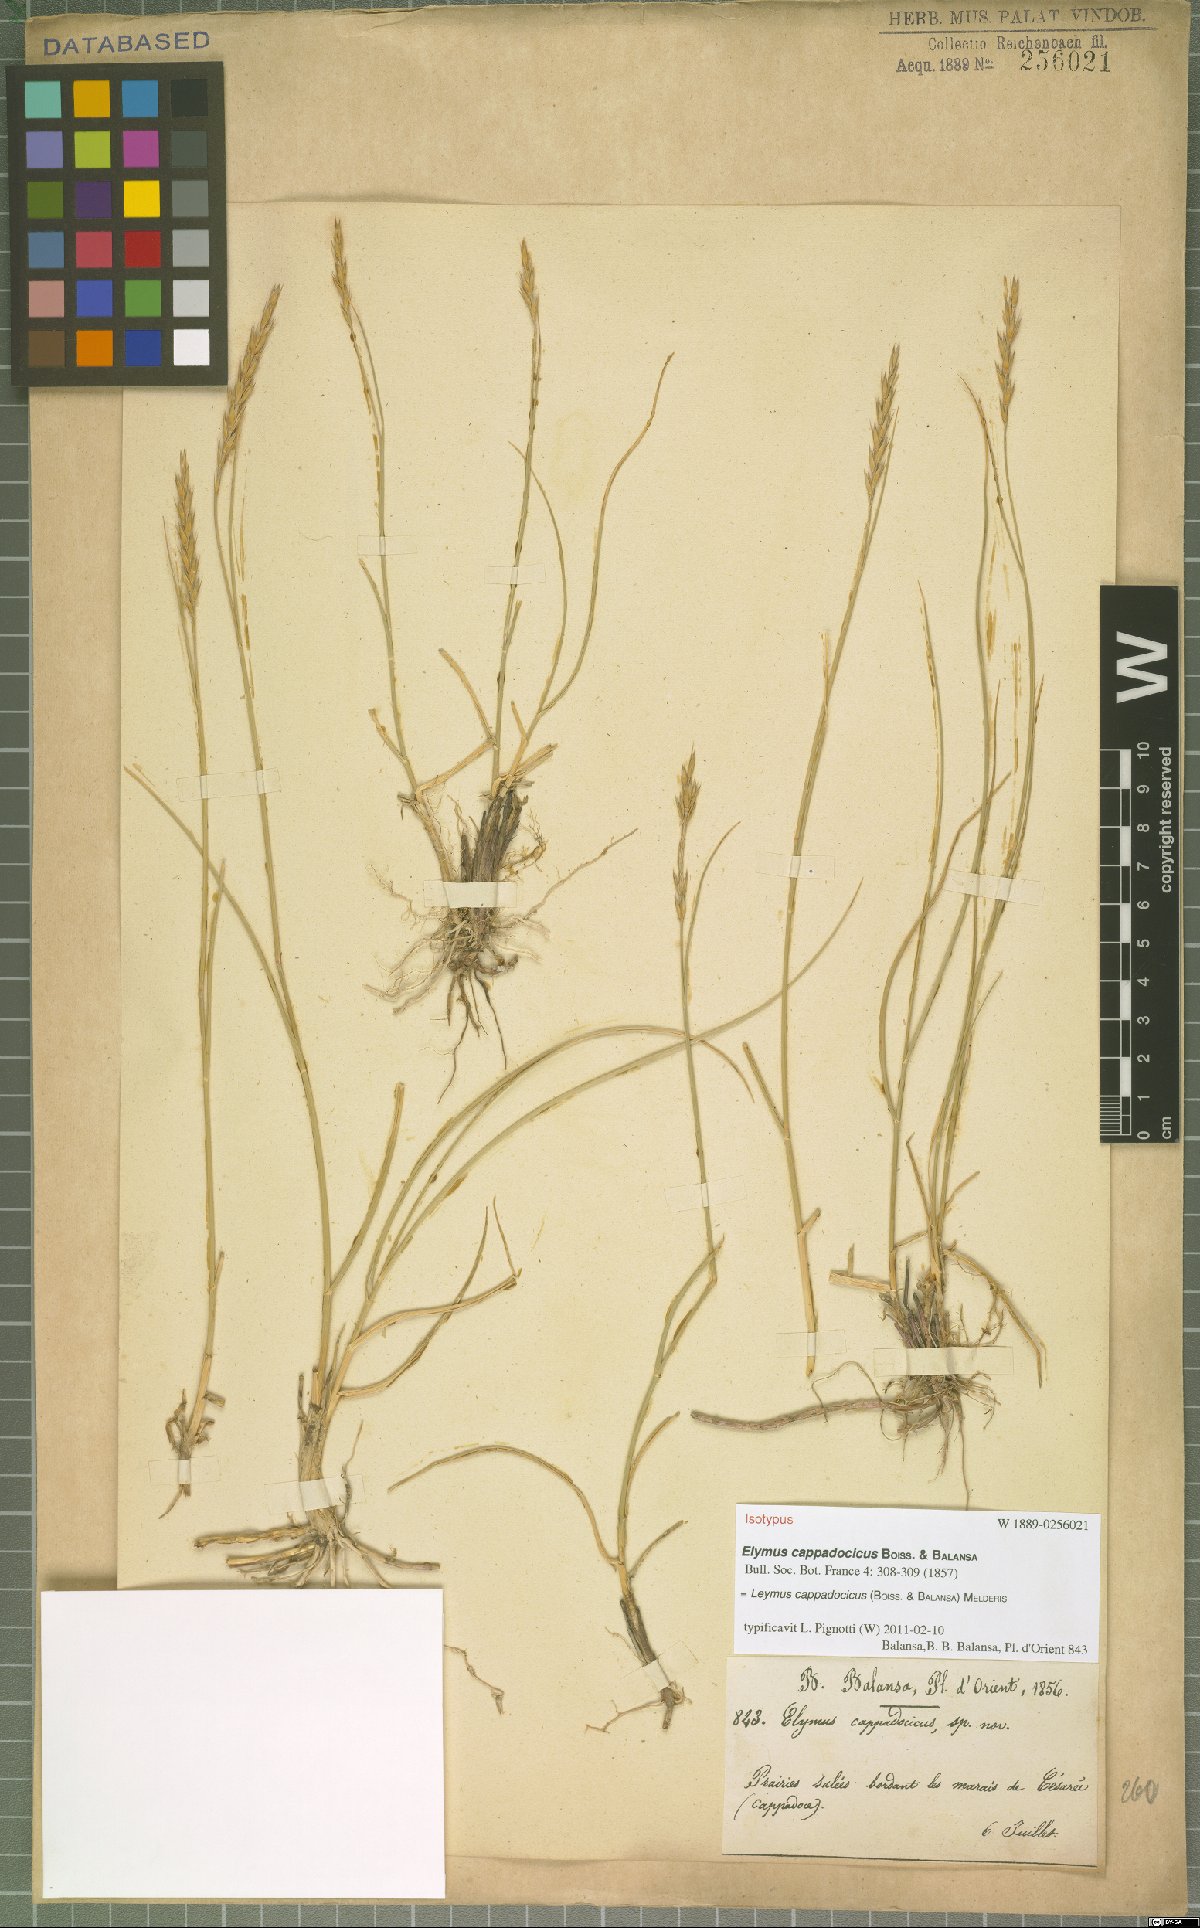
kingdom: Plantae
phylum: Tracheophyta
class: Liliopsida
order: Poales
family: Poaceae
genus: Leymus
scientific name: Leymus cappadocicus
